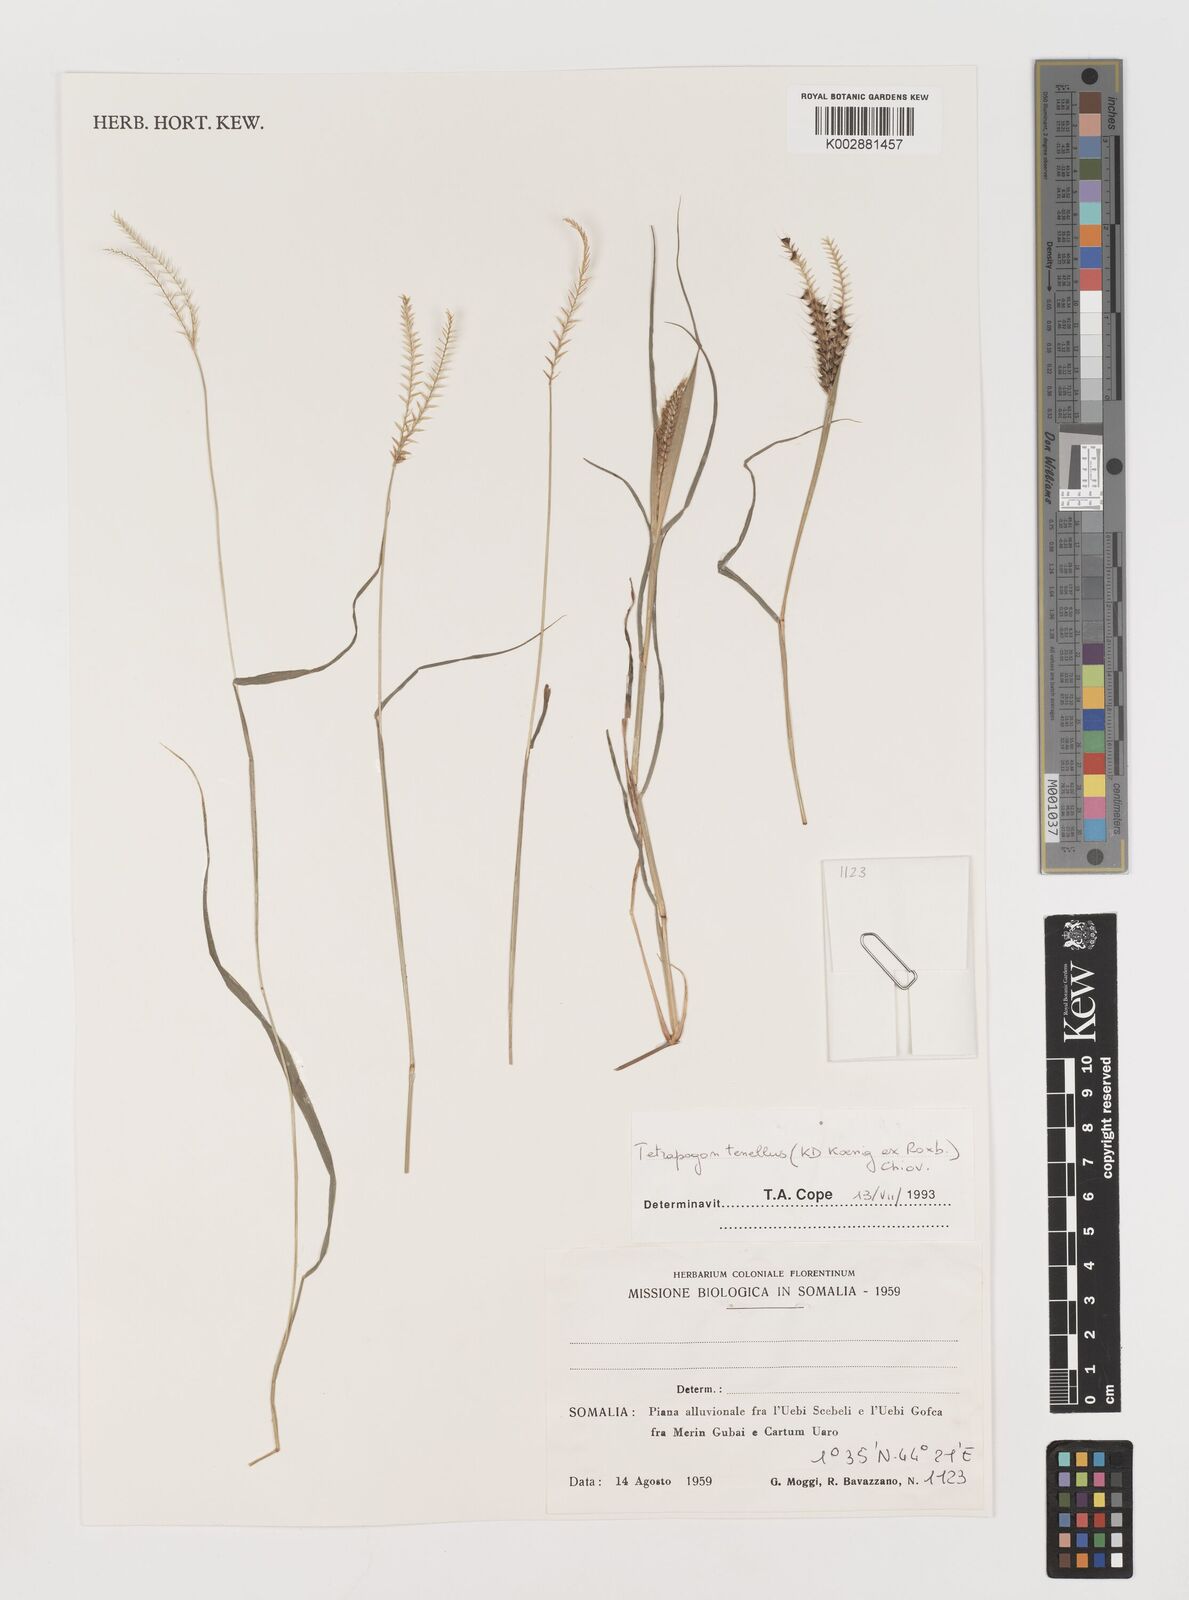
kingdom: Plantae
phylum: Tracheophyta
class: Liliopsida
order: Poales
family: Poaceae
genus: Tetrapogon
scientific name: Tetrapogon tenellus
